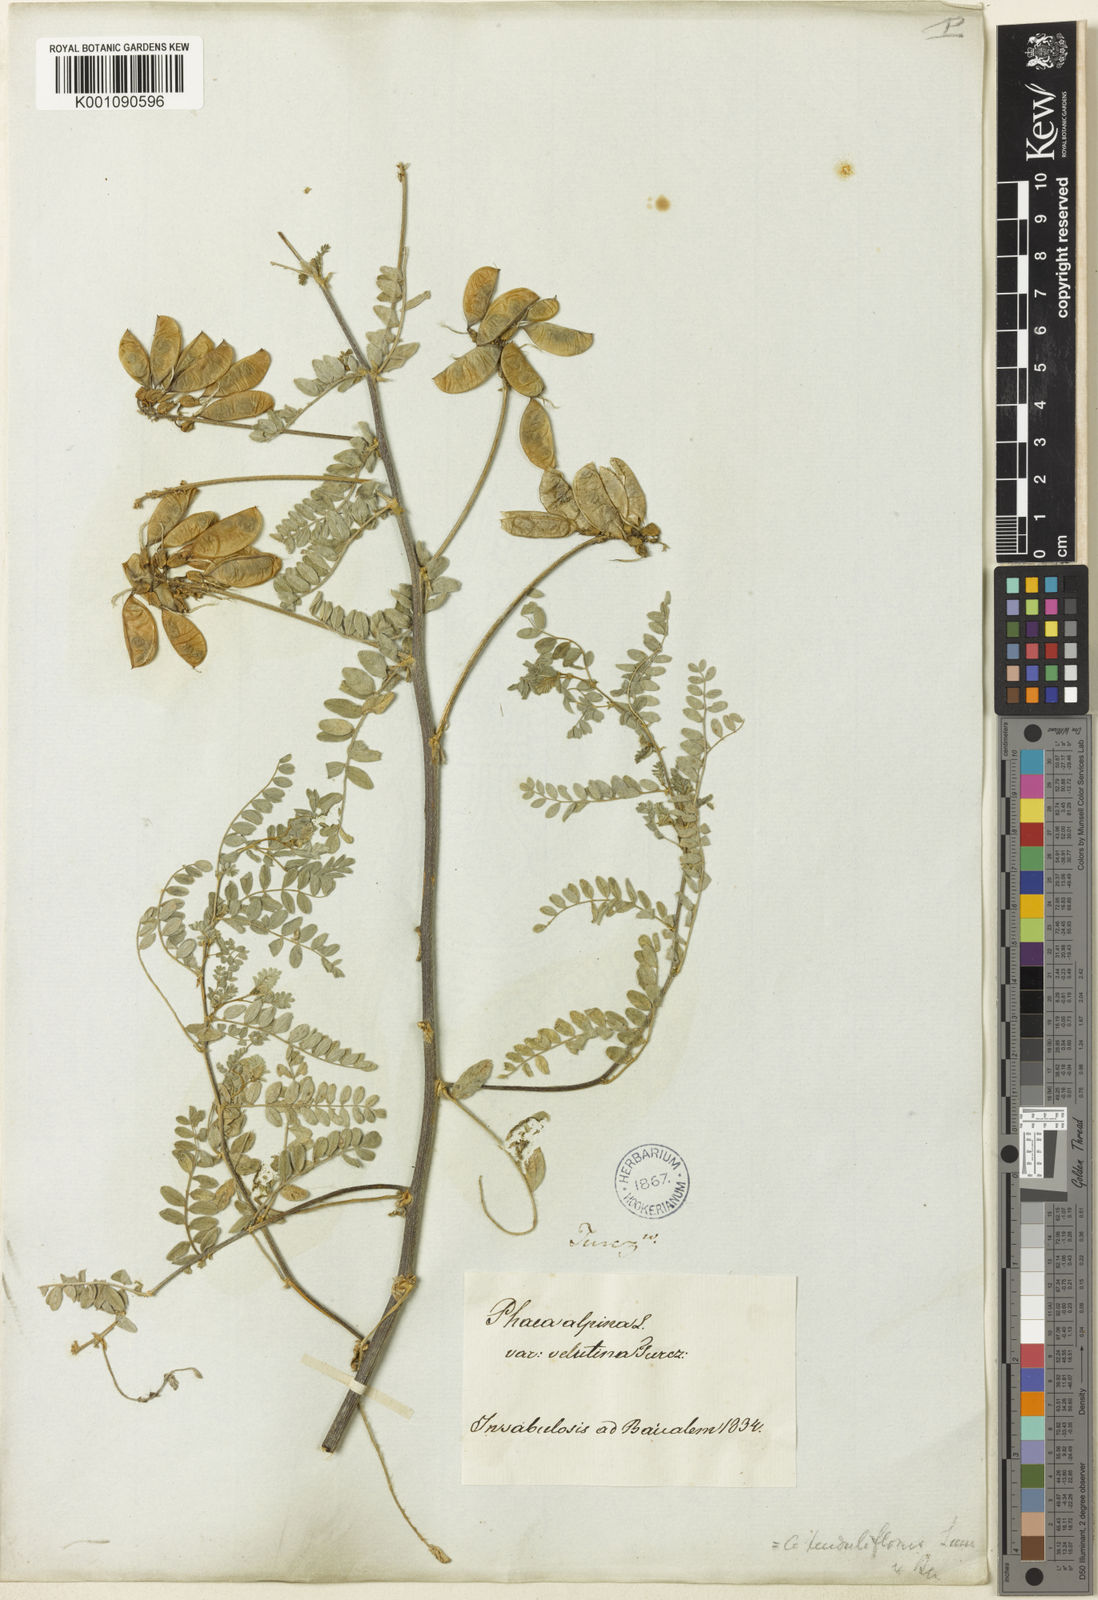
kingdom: Plantae
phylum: Tracheophyta
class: Magnoliopsida
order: Fabales
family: Fabaceae
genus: Astragalus
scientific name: Astragalus
